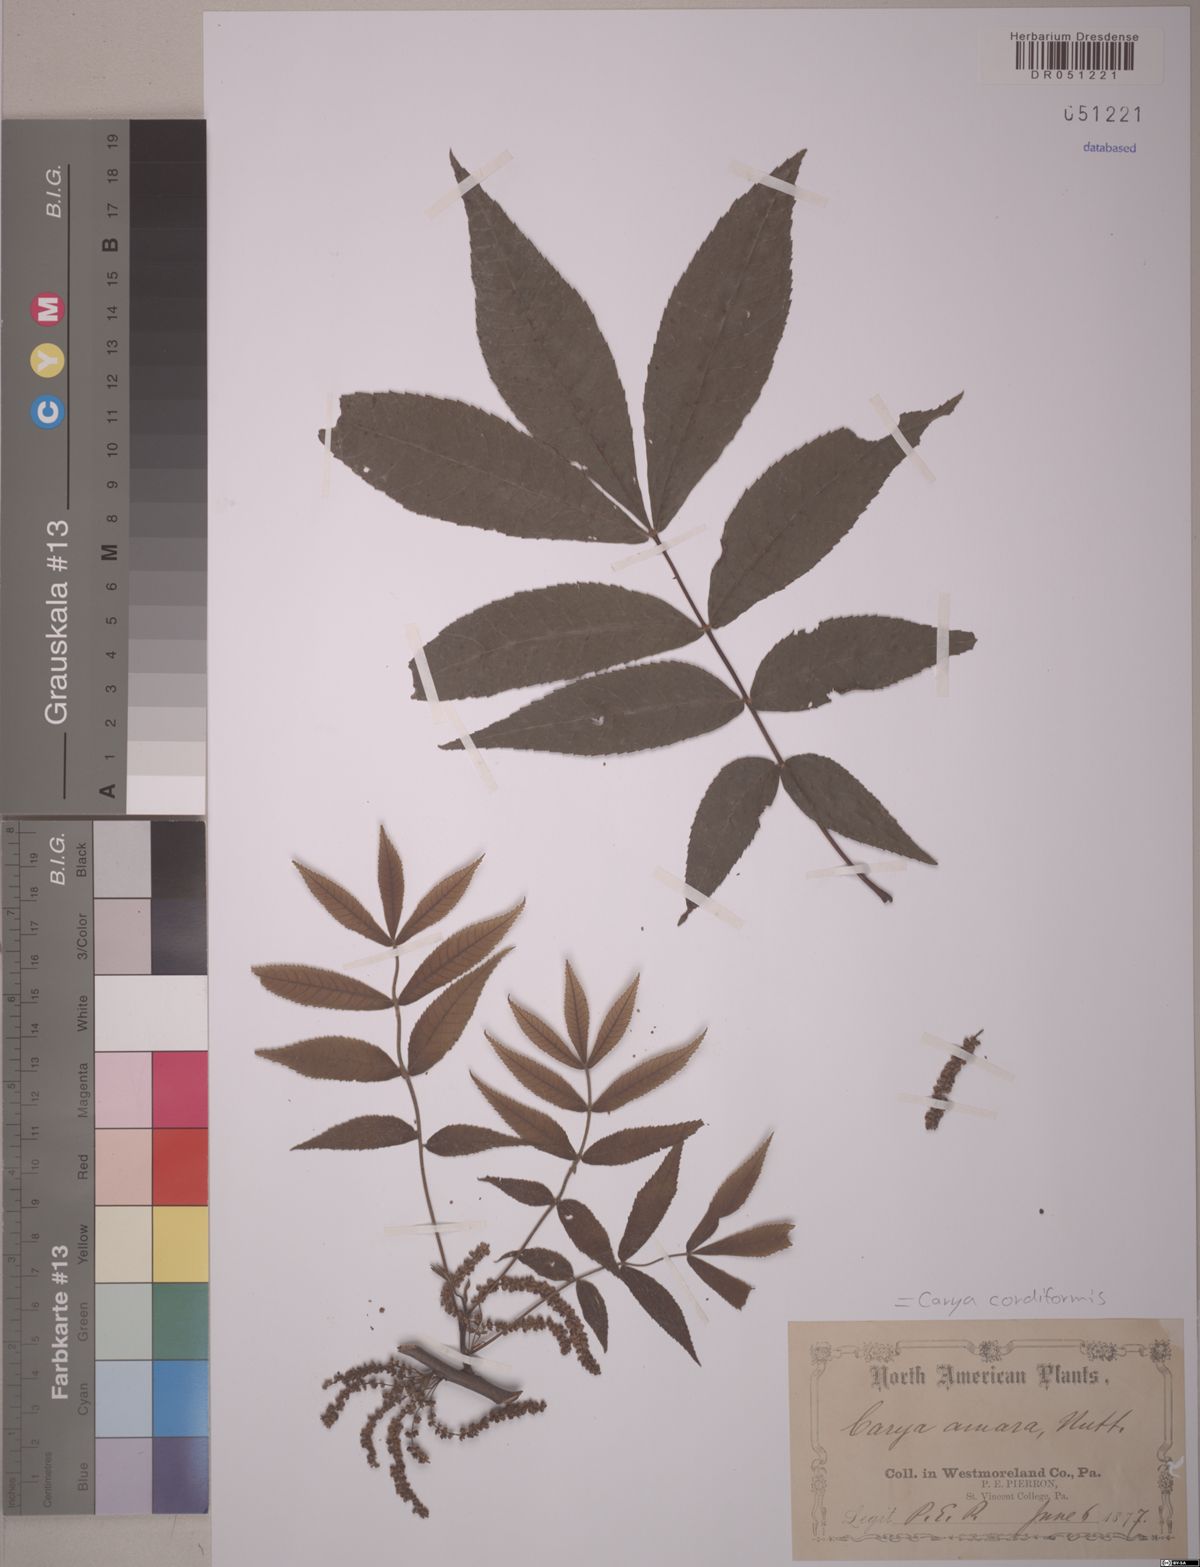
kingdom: Plantae
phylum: Tracheophyta
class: Magnoliopsida
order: Fagales
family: Juglandaceae
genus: Carya
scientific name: Carya cordiformis
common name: Bitternut hickory
